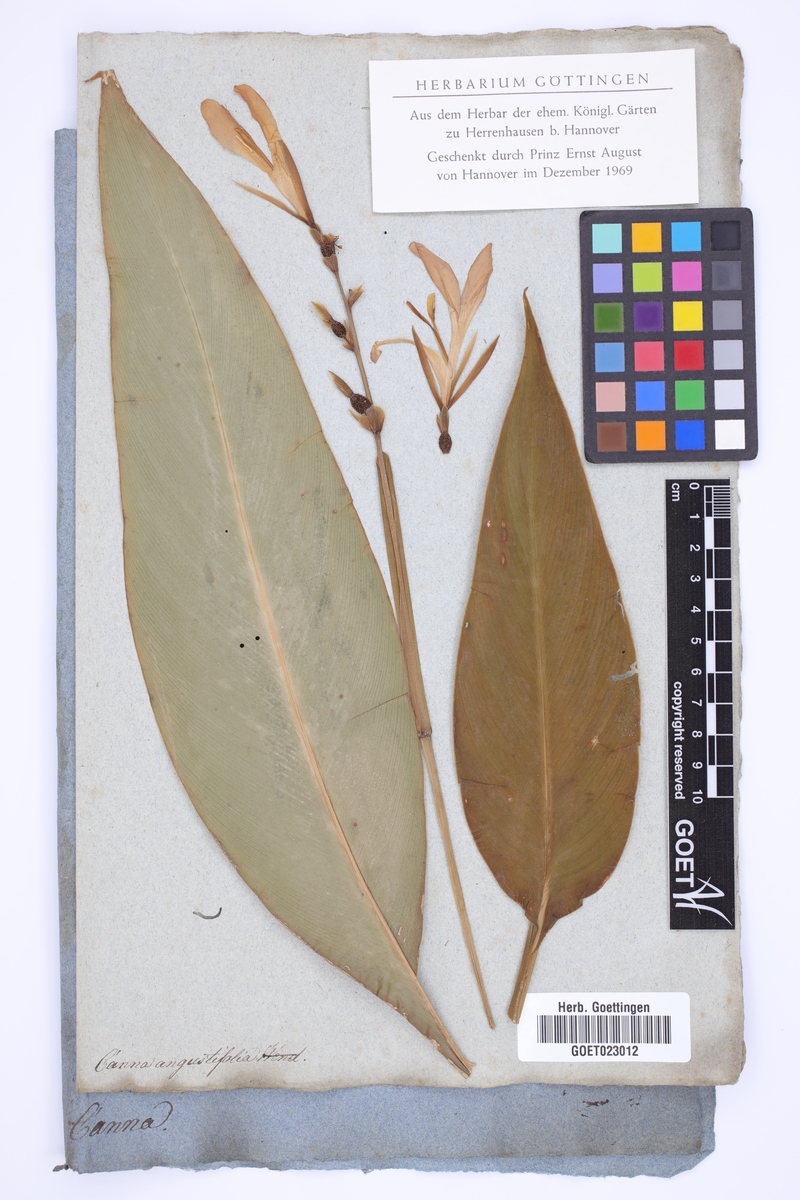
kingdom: Plantae
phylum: Tracheophyta
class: Liliopsida
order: Zingiberales
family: Cannaceae
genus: Canna
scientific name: Canna glauca
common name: Louisiana canna
